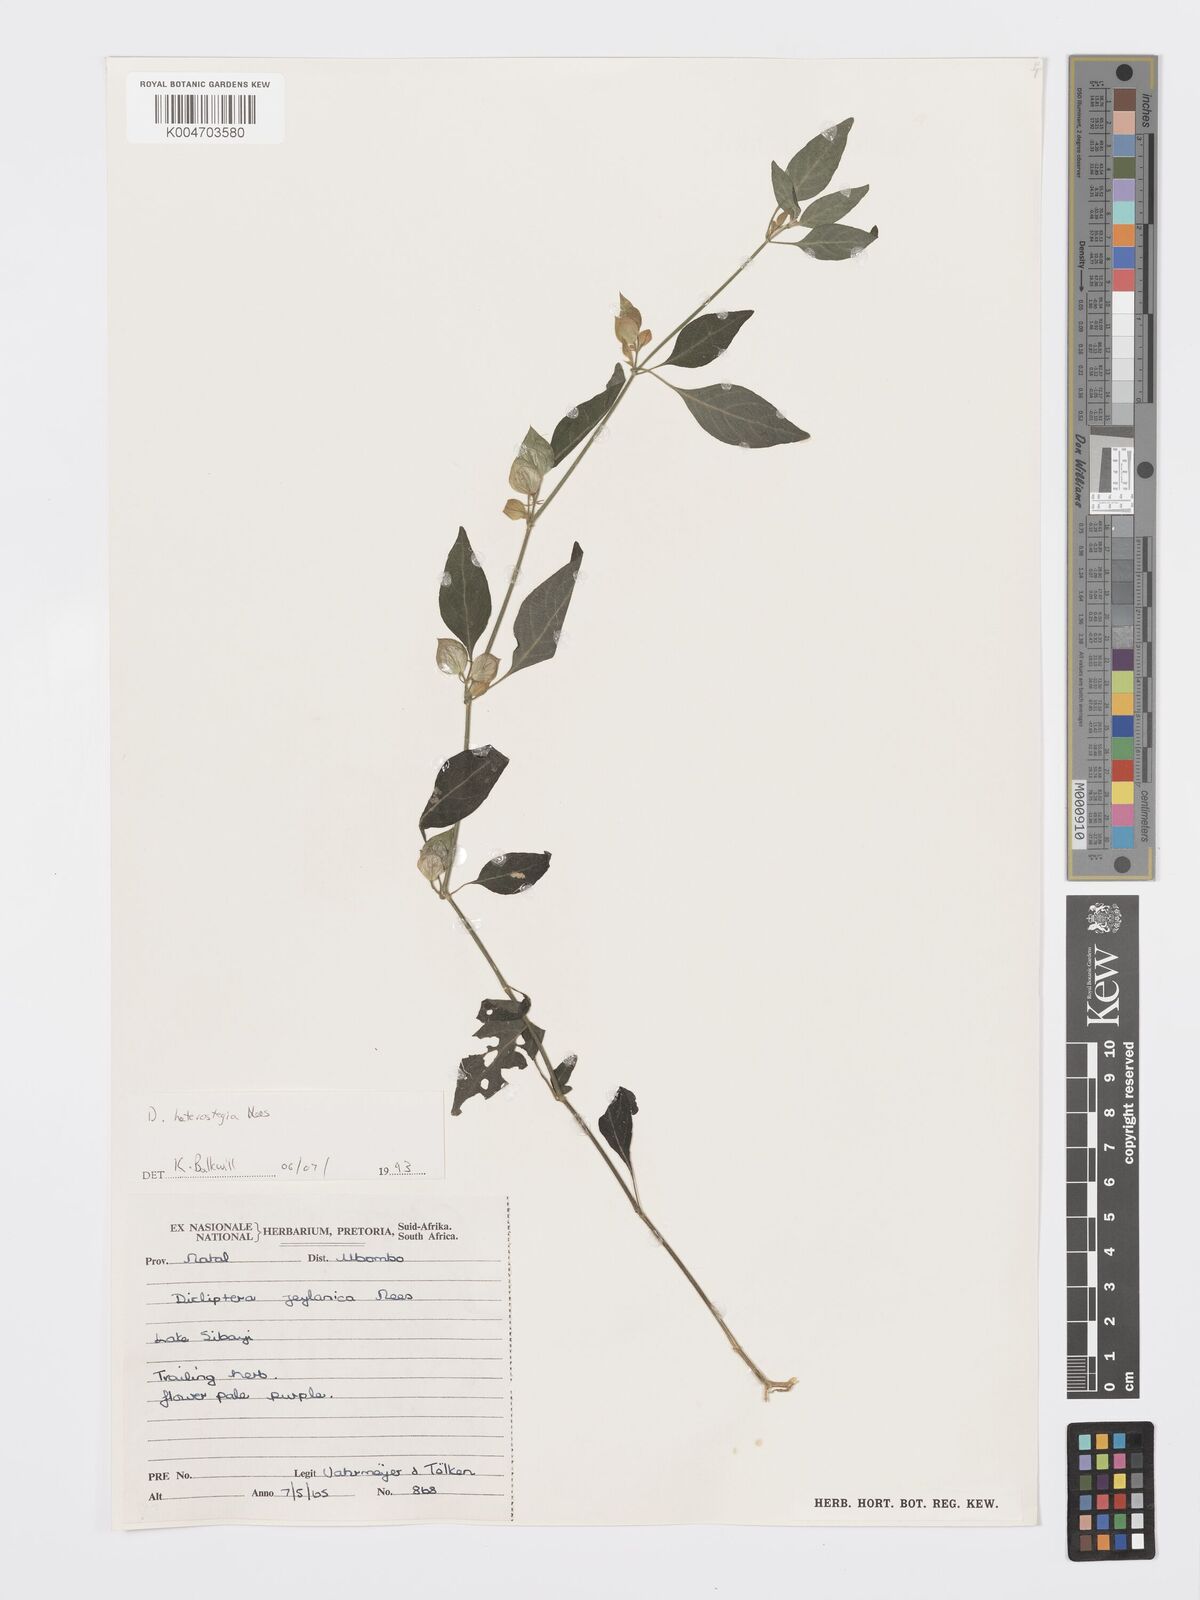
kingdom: Plantae
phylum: Tracheophyta
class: Magnoliopsida
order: Lamiales
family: Acanthaceae
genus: Dicliptera
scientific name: Dicliptera heterostegia
